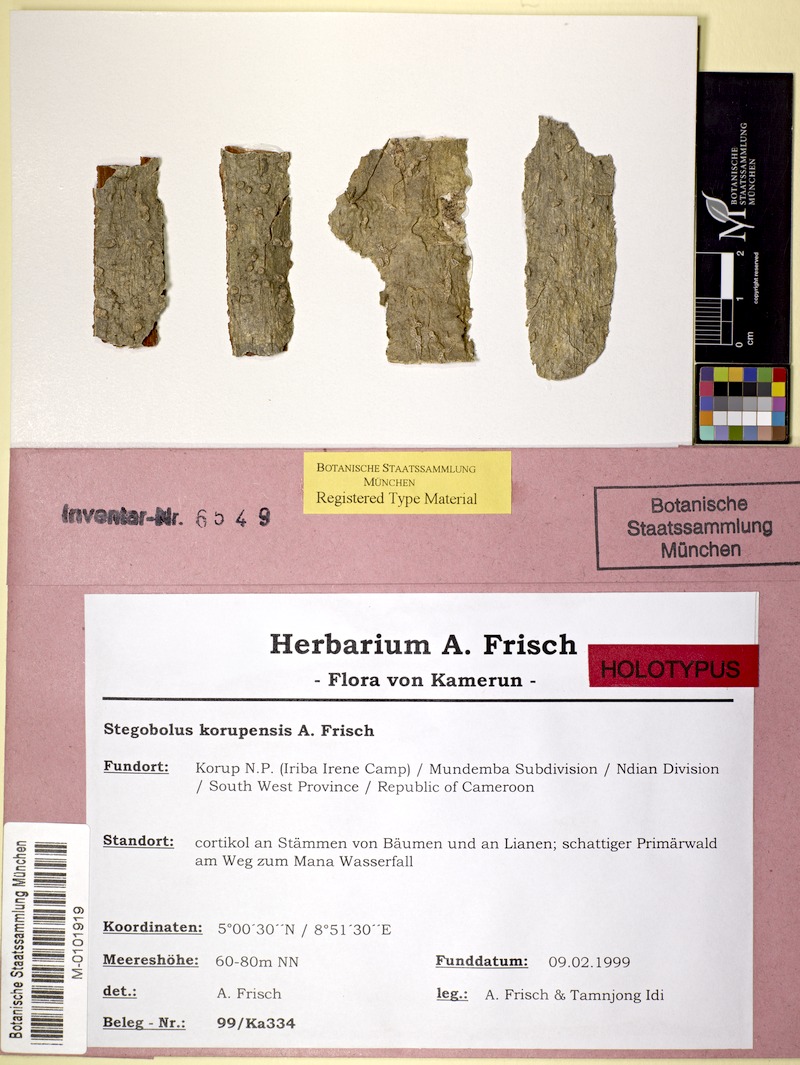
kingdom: Fungi
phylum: Ascomycota
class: Lecanoromycetes
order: Ostropales
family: Graphidaceae
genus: Rhabdodiscus
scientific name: Rhabdodiscus korupensis
